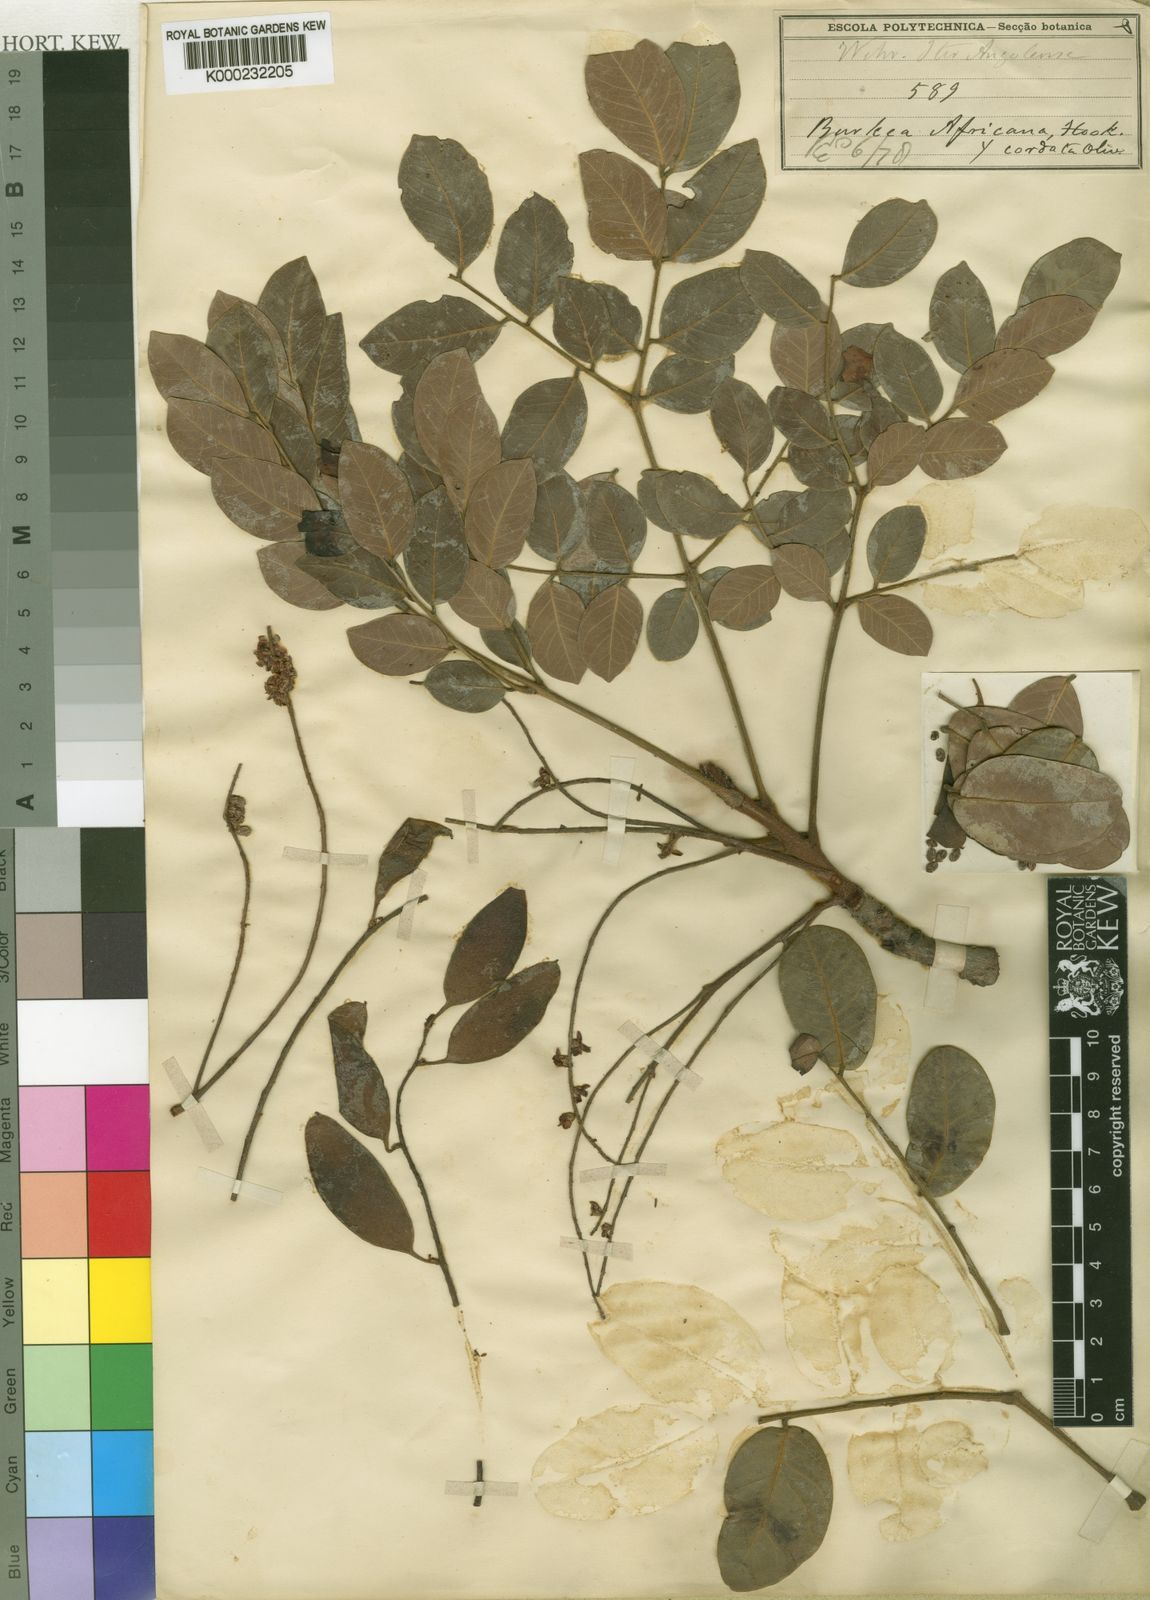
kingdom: Plantae
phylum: Tracheophyta
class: Magnoliopsida
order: Fabales
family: Fabaceae
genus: Burkea
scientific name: Burkea africana
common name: Mkalati tree
